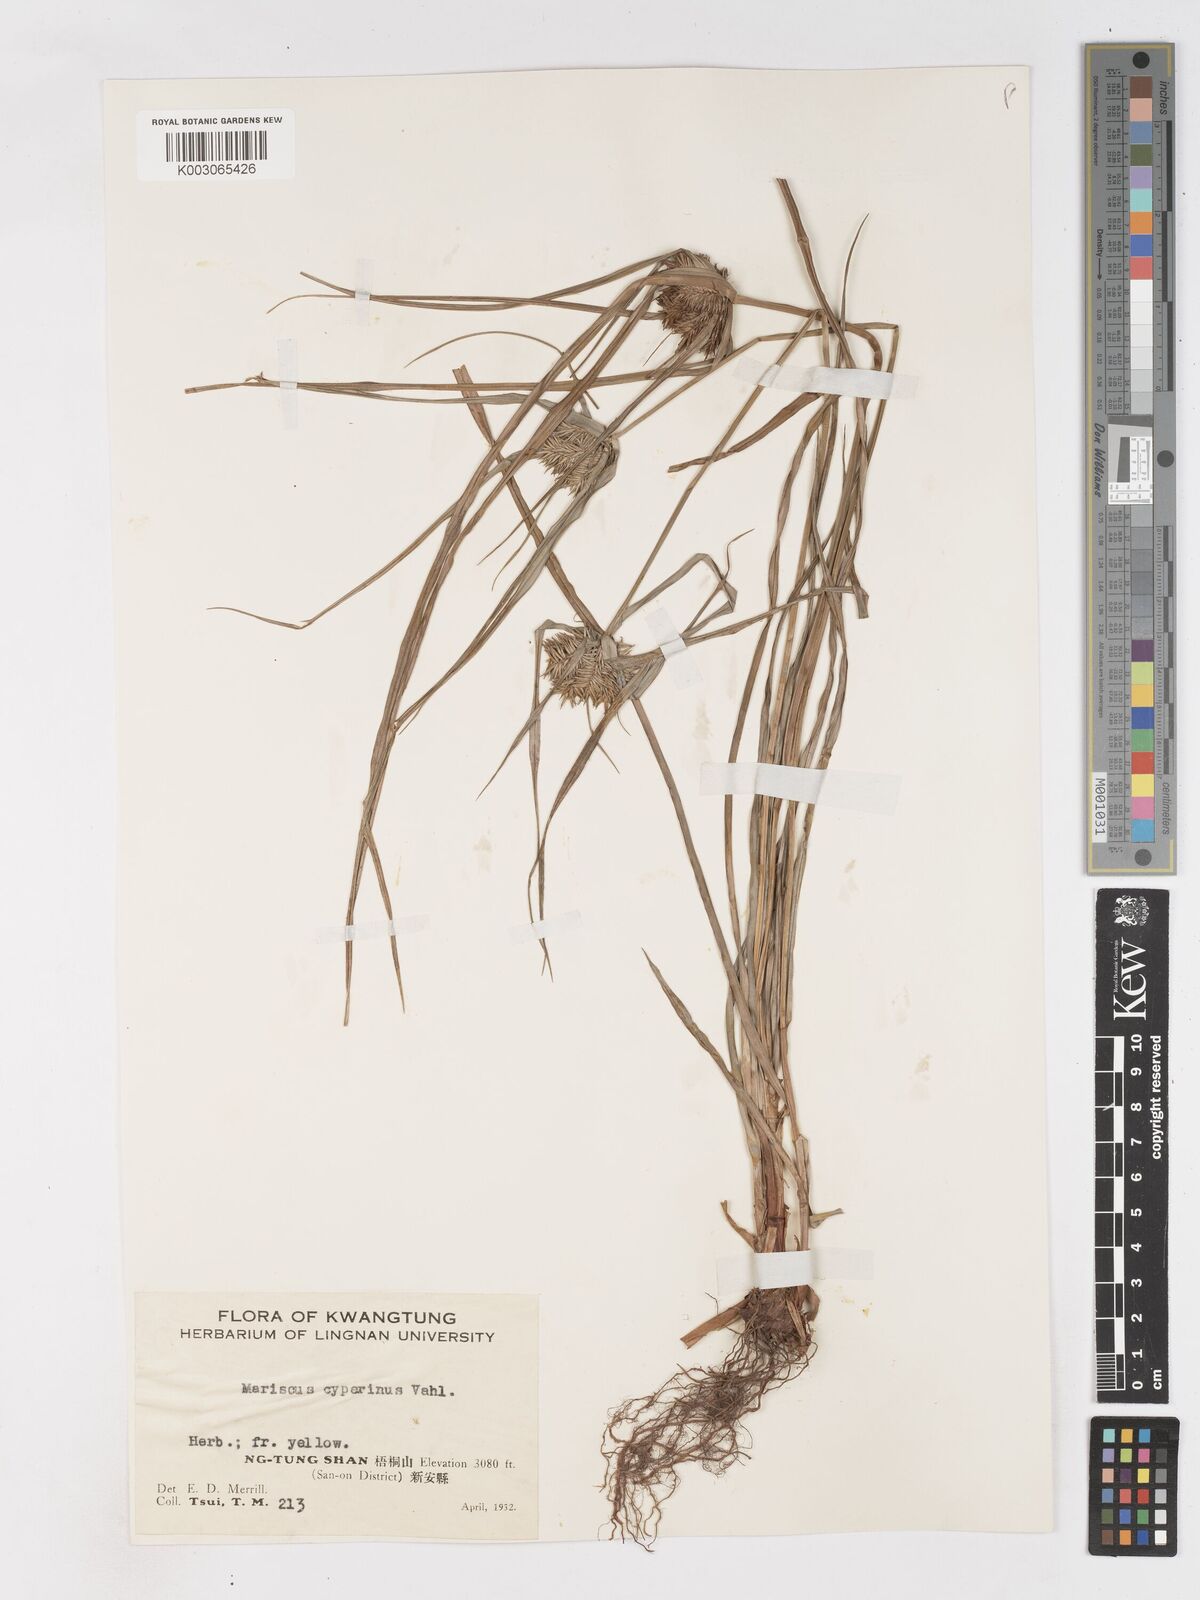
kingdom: Plantae
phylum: Tracheophyta
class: Liliopsida
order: Poales
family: Cyperaceae
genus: Cyperus
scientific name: Cyperus cyperinus
